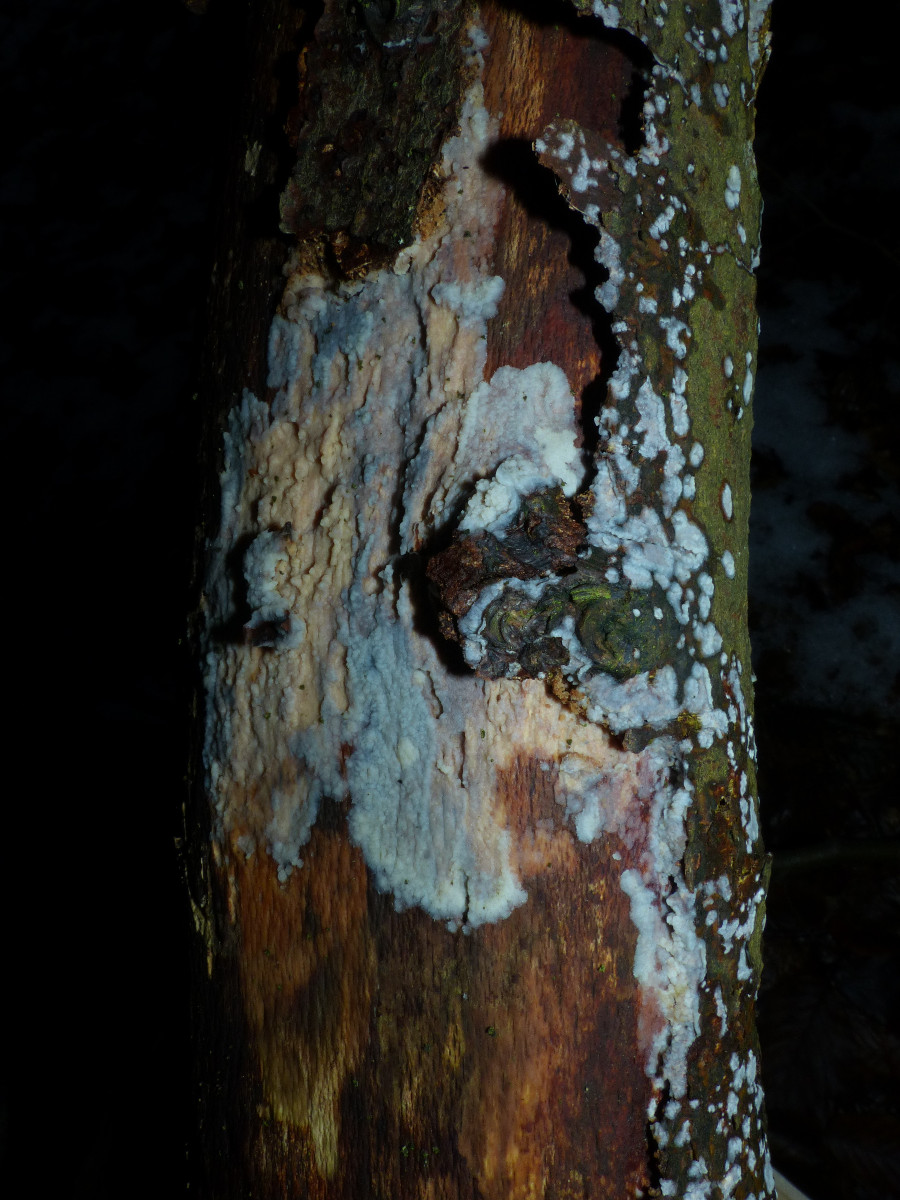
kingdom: Fungi
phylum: Basidiomycota
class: Agaricomycetes
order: Corticiales
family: Corticiaceae
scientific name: Corticiaceae
